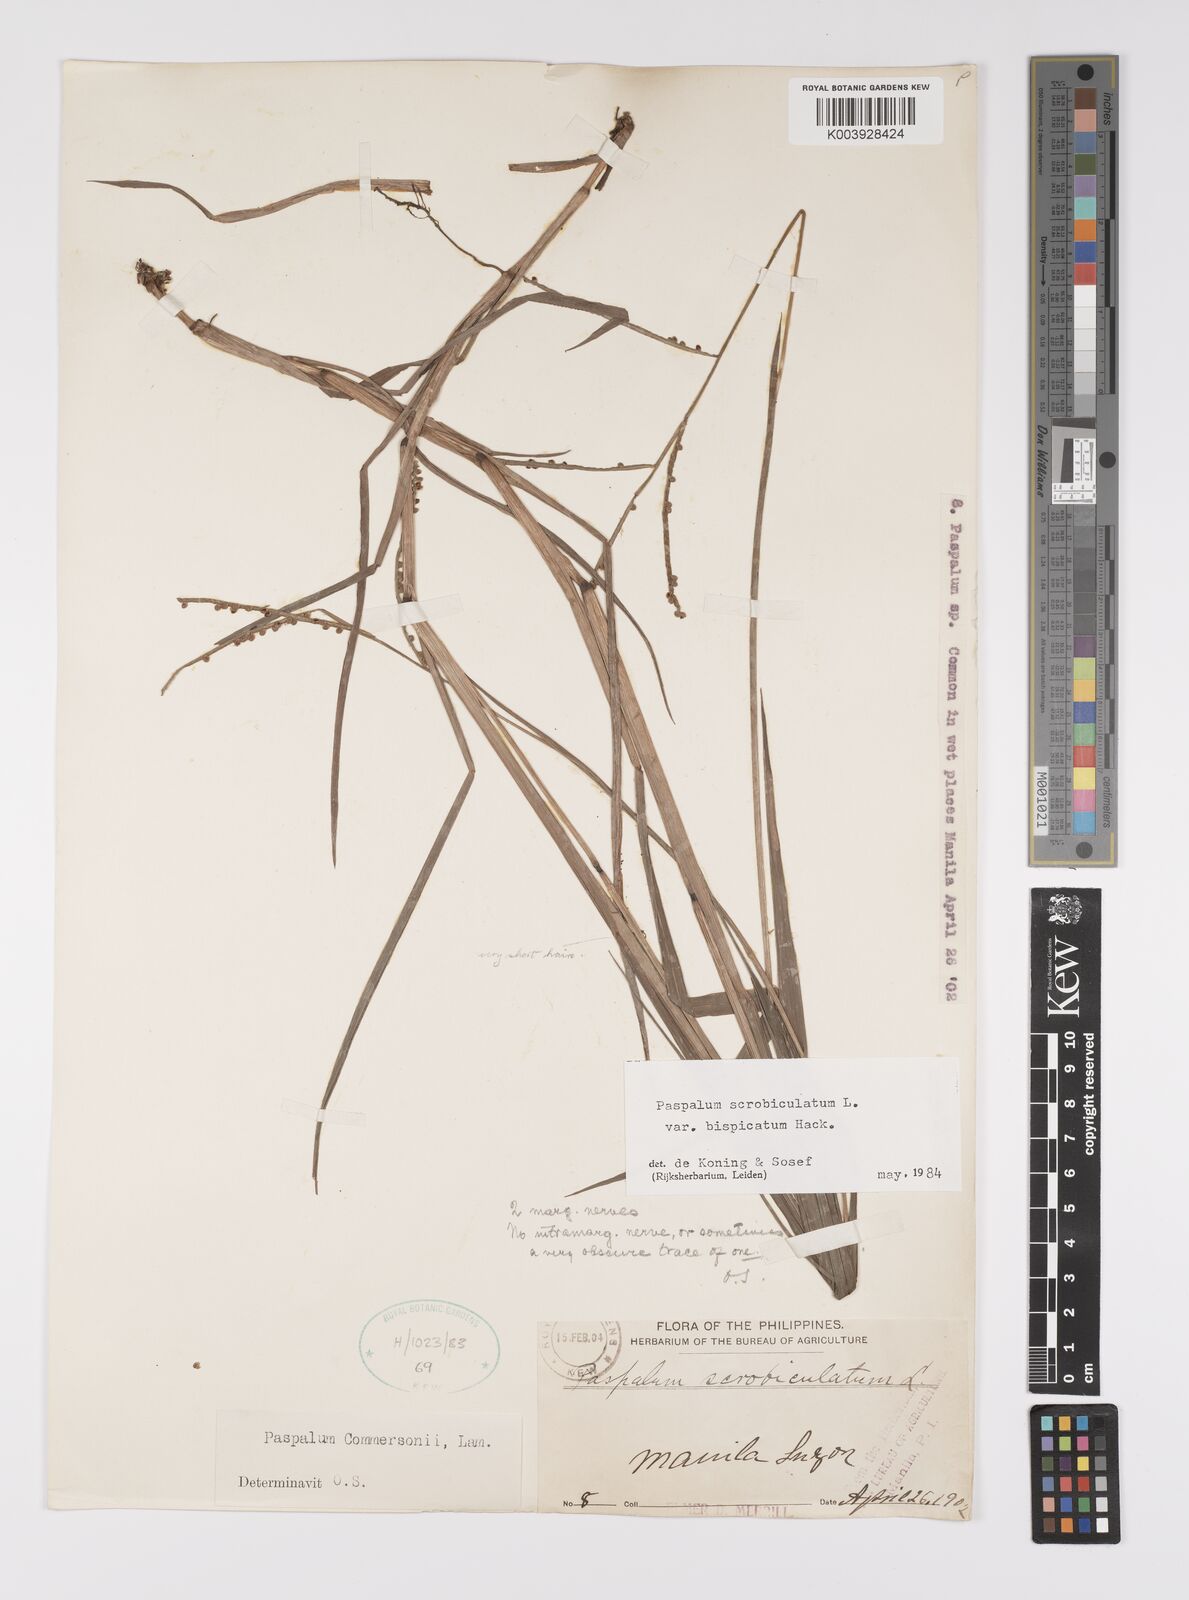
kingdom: Plantae
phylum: Tracheophyta
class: Liliopsida
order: Poales
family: Poaceae
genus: Paspalum
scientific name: Paspalum scrobiculatum
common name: Kodo millet
